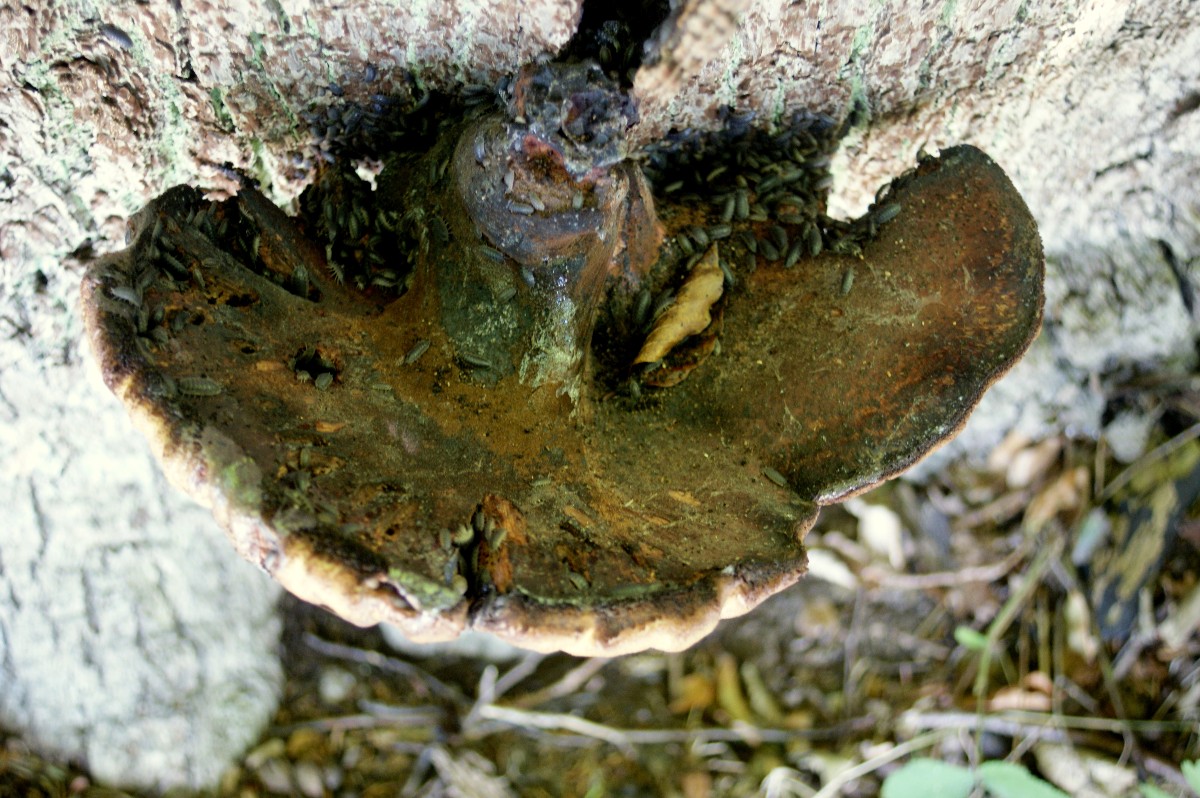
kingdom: Fungi
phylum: Basidiomycota
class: Agaricomycetes
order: Agaricales
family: Fistulinaceae
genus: Fistulina
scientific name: Fistulina hepatica
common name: oksetunge
